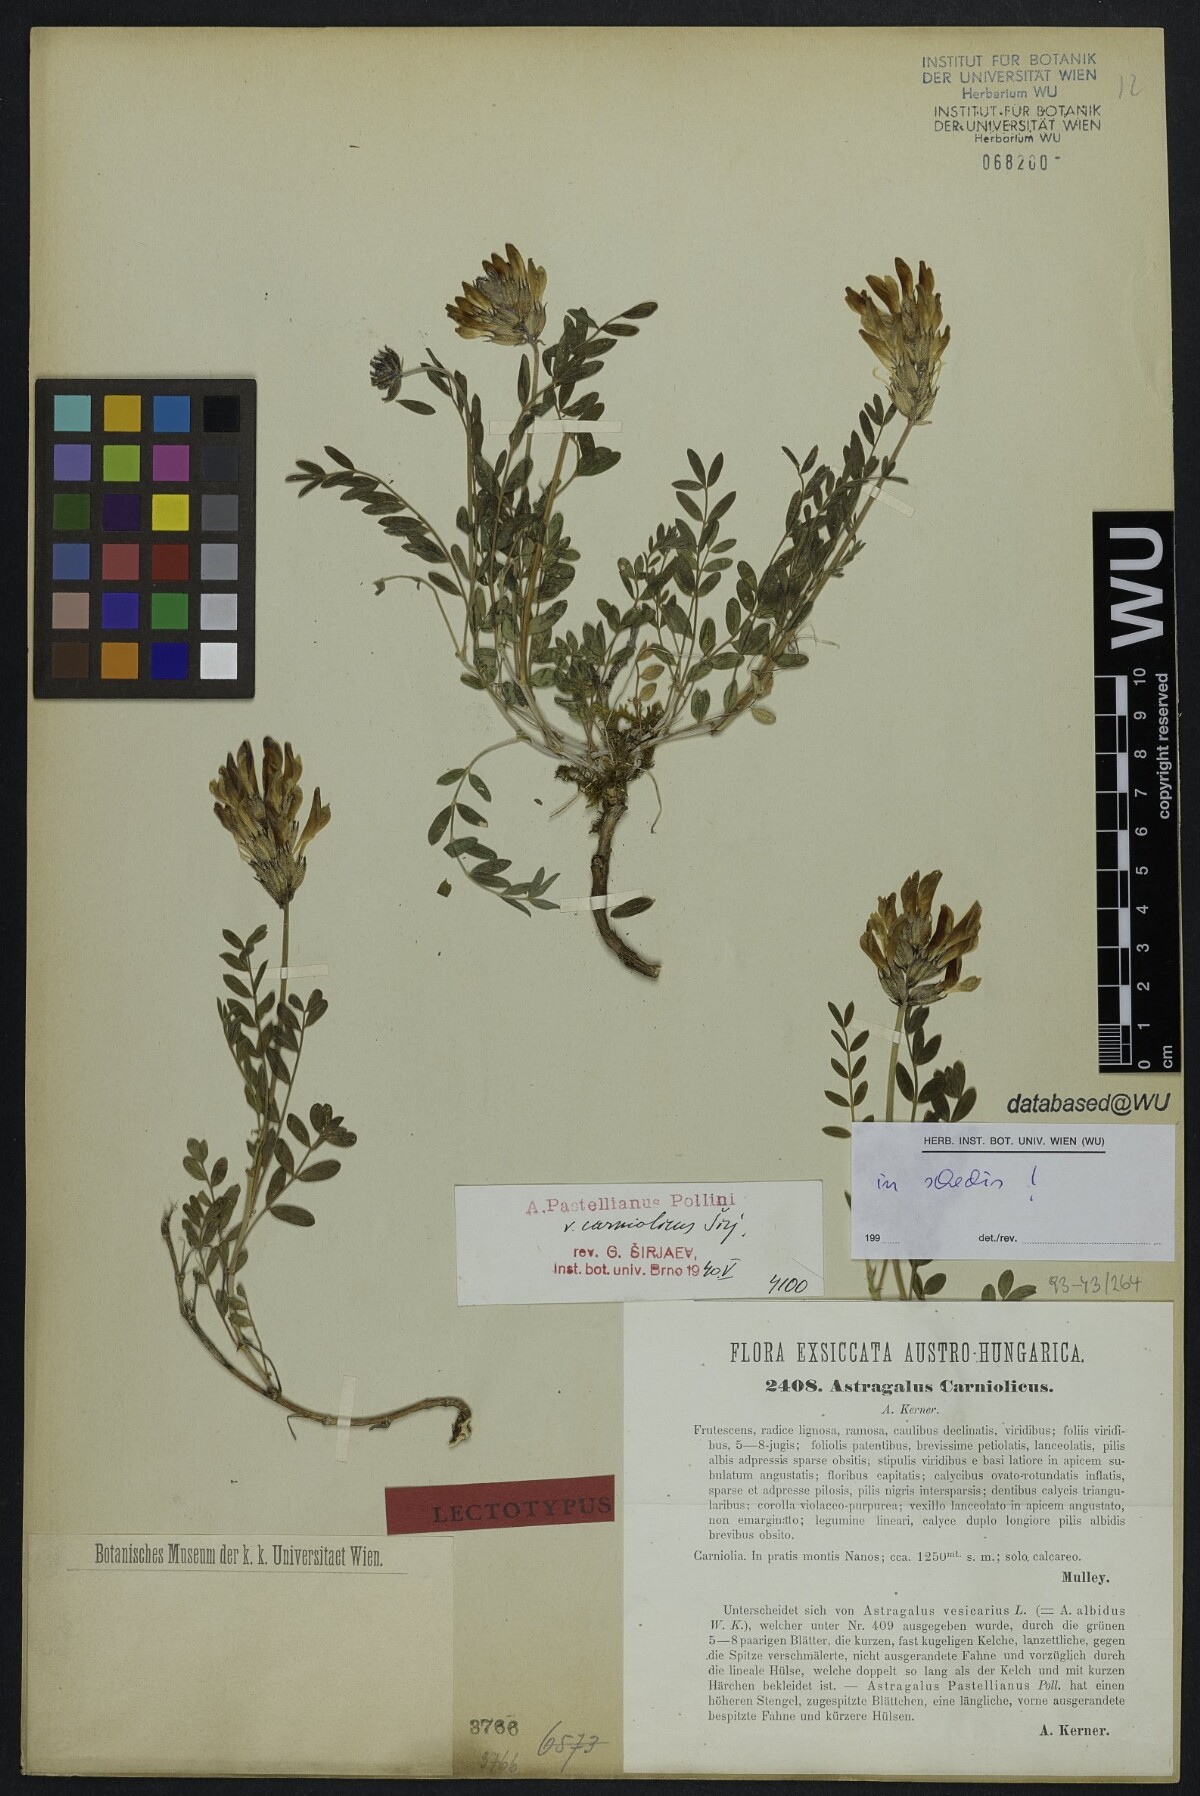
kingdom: Plantae
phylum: Tracheophyta
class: Magnoliopsida
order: Fabales
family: Fabaceae
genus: Astragalus
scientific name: Astragalus vesicarius
